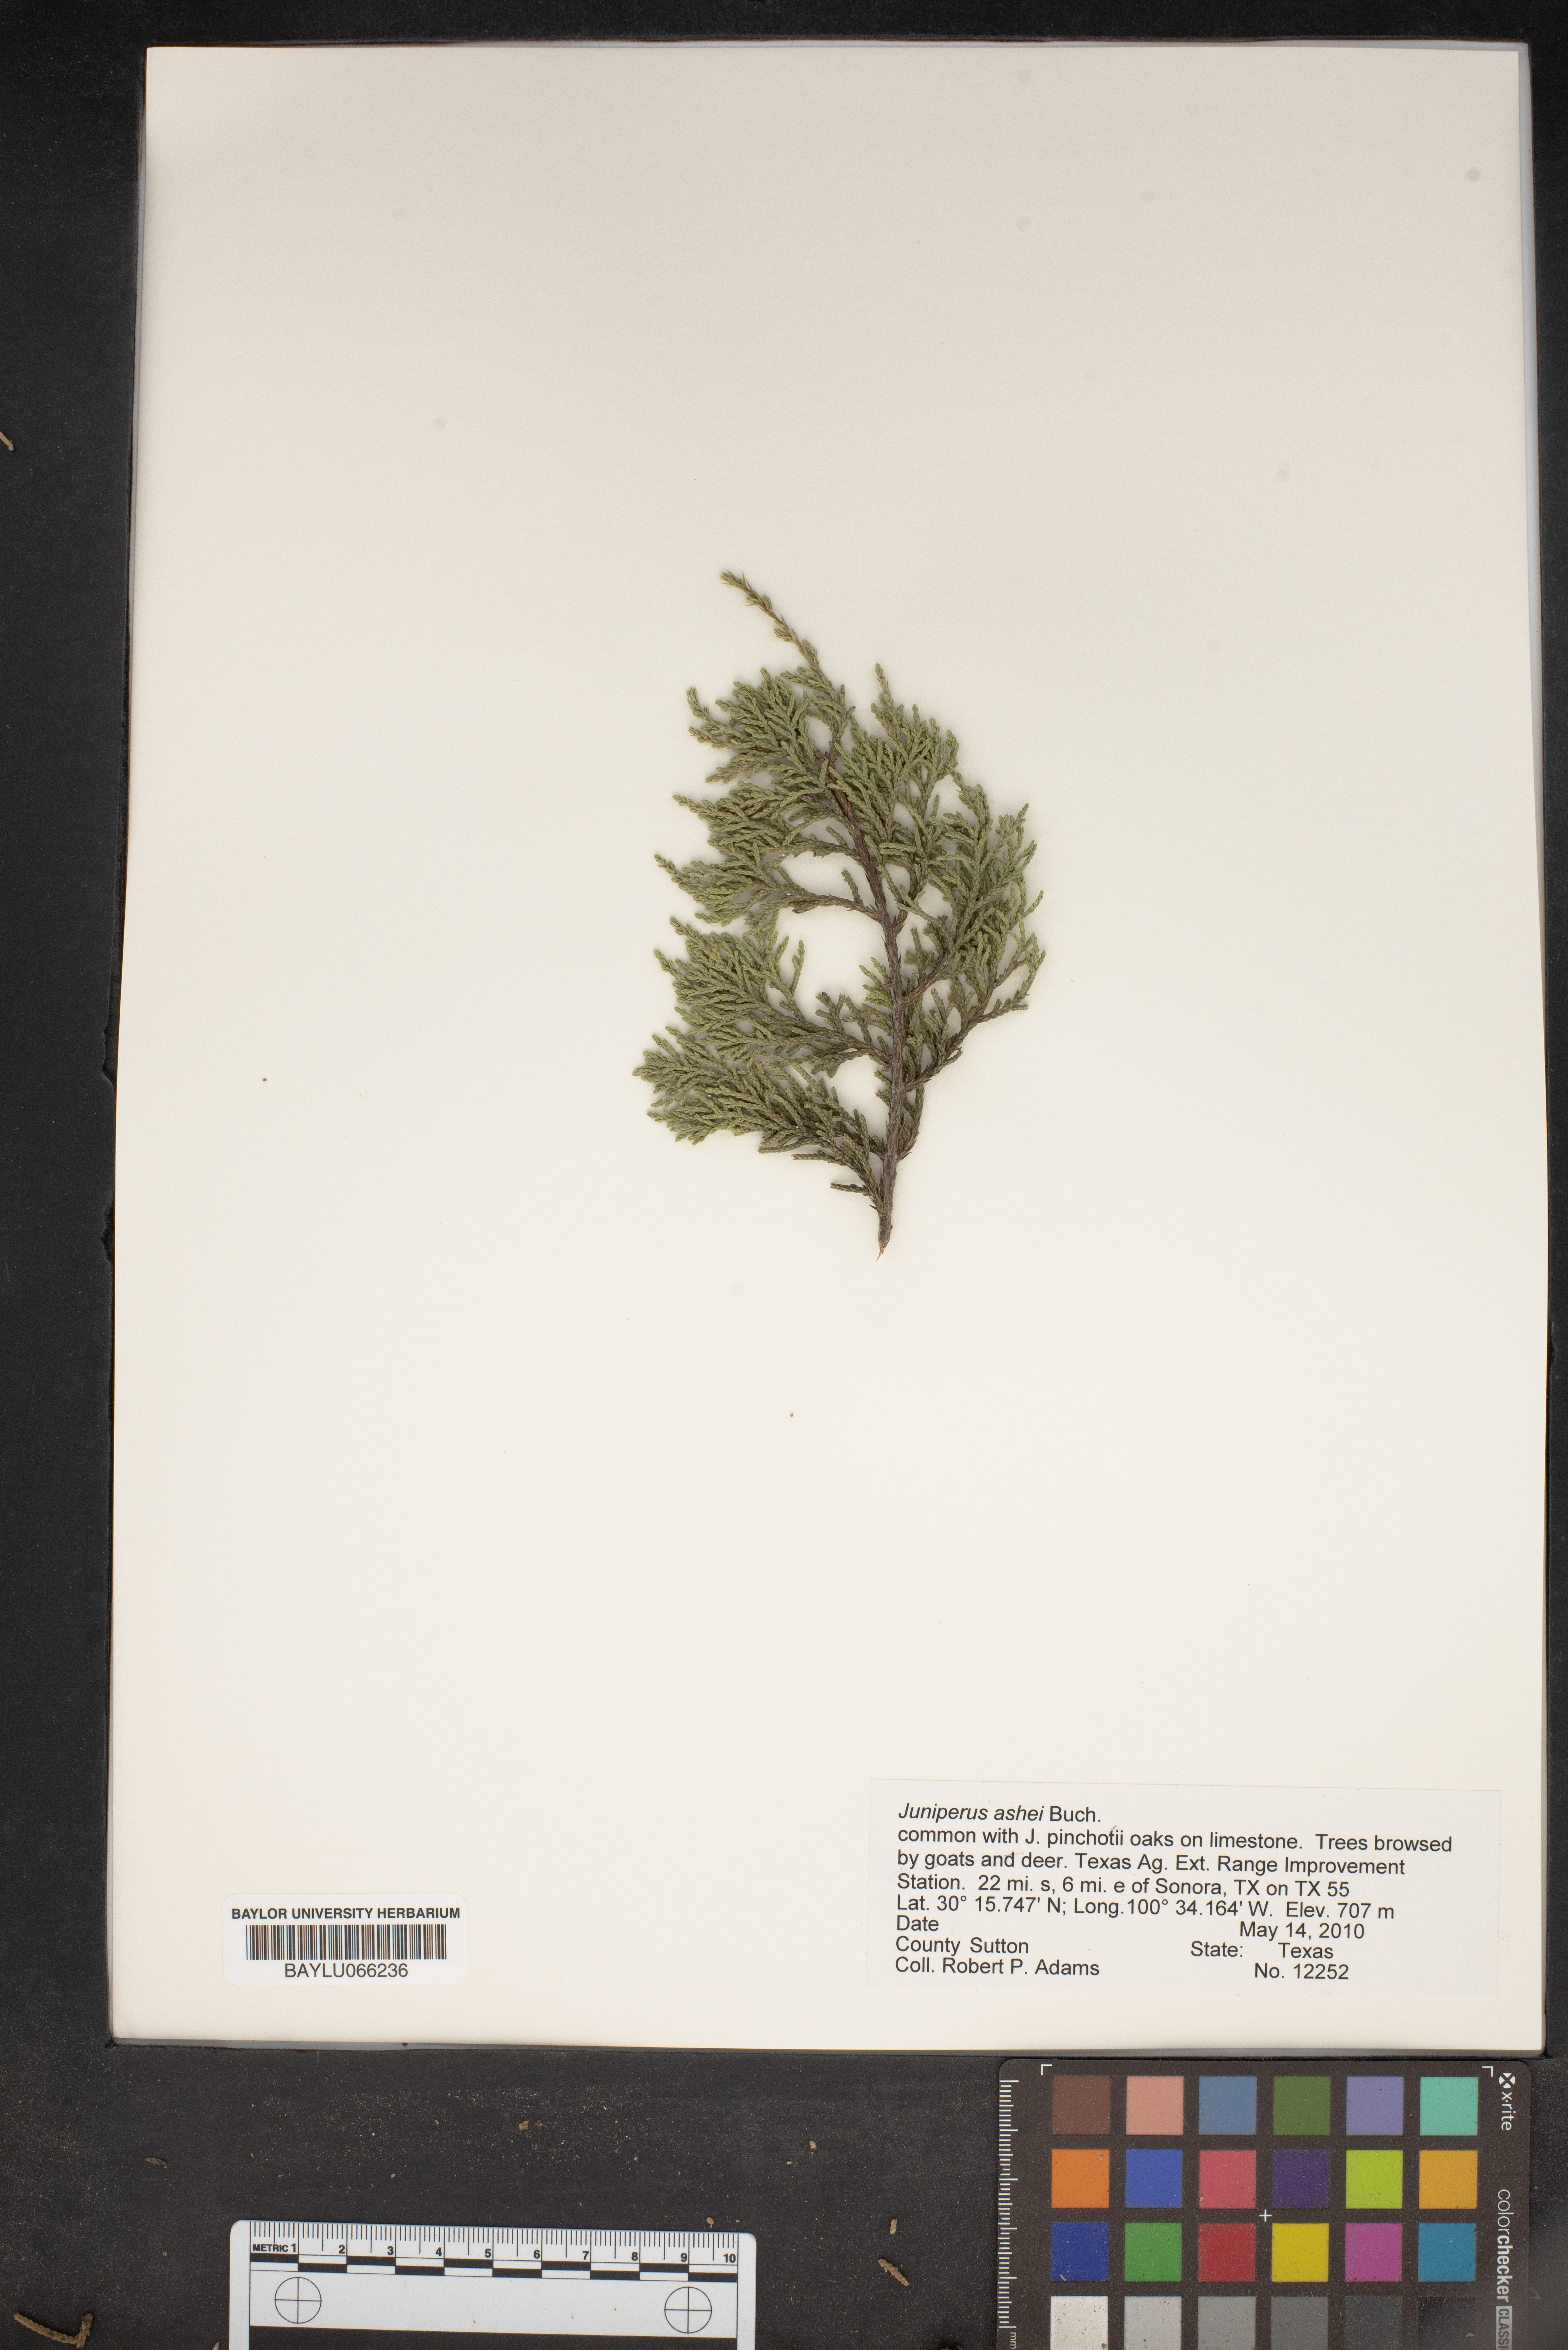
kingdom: Plantae
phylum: Tracheophyta
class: Pinopsida
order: Pinales
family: Cupressaceae
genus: Juniperus
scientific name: Juniperus ashei
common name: Mexican juniper
